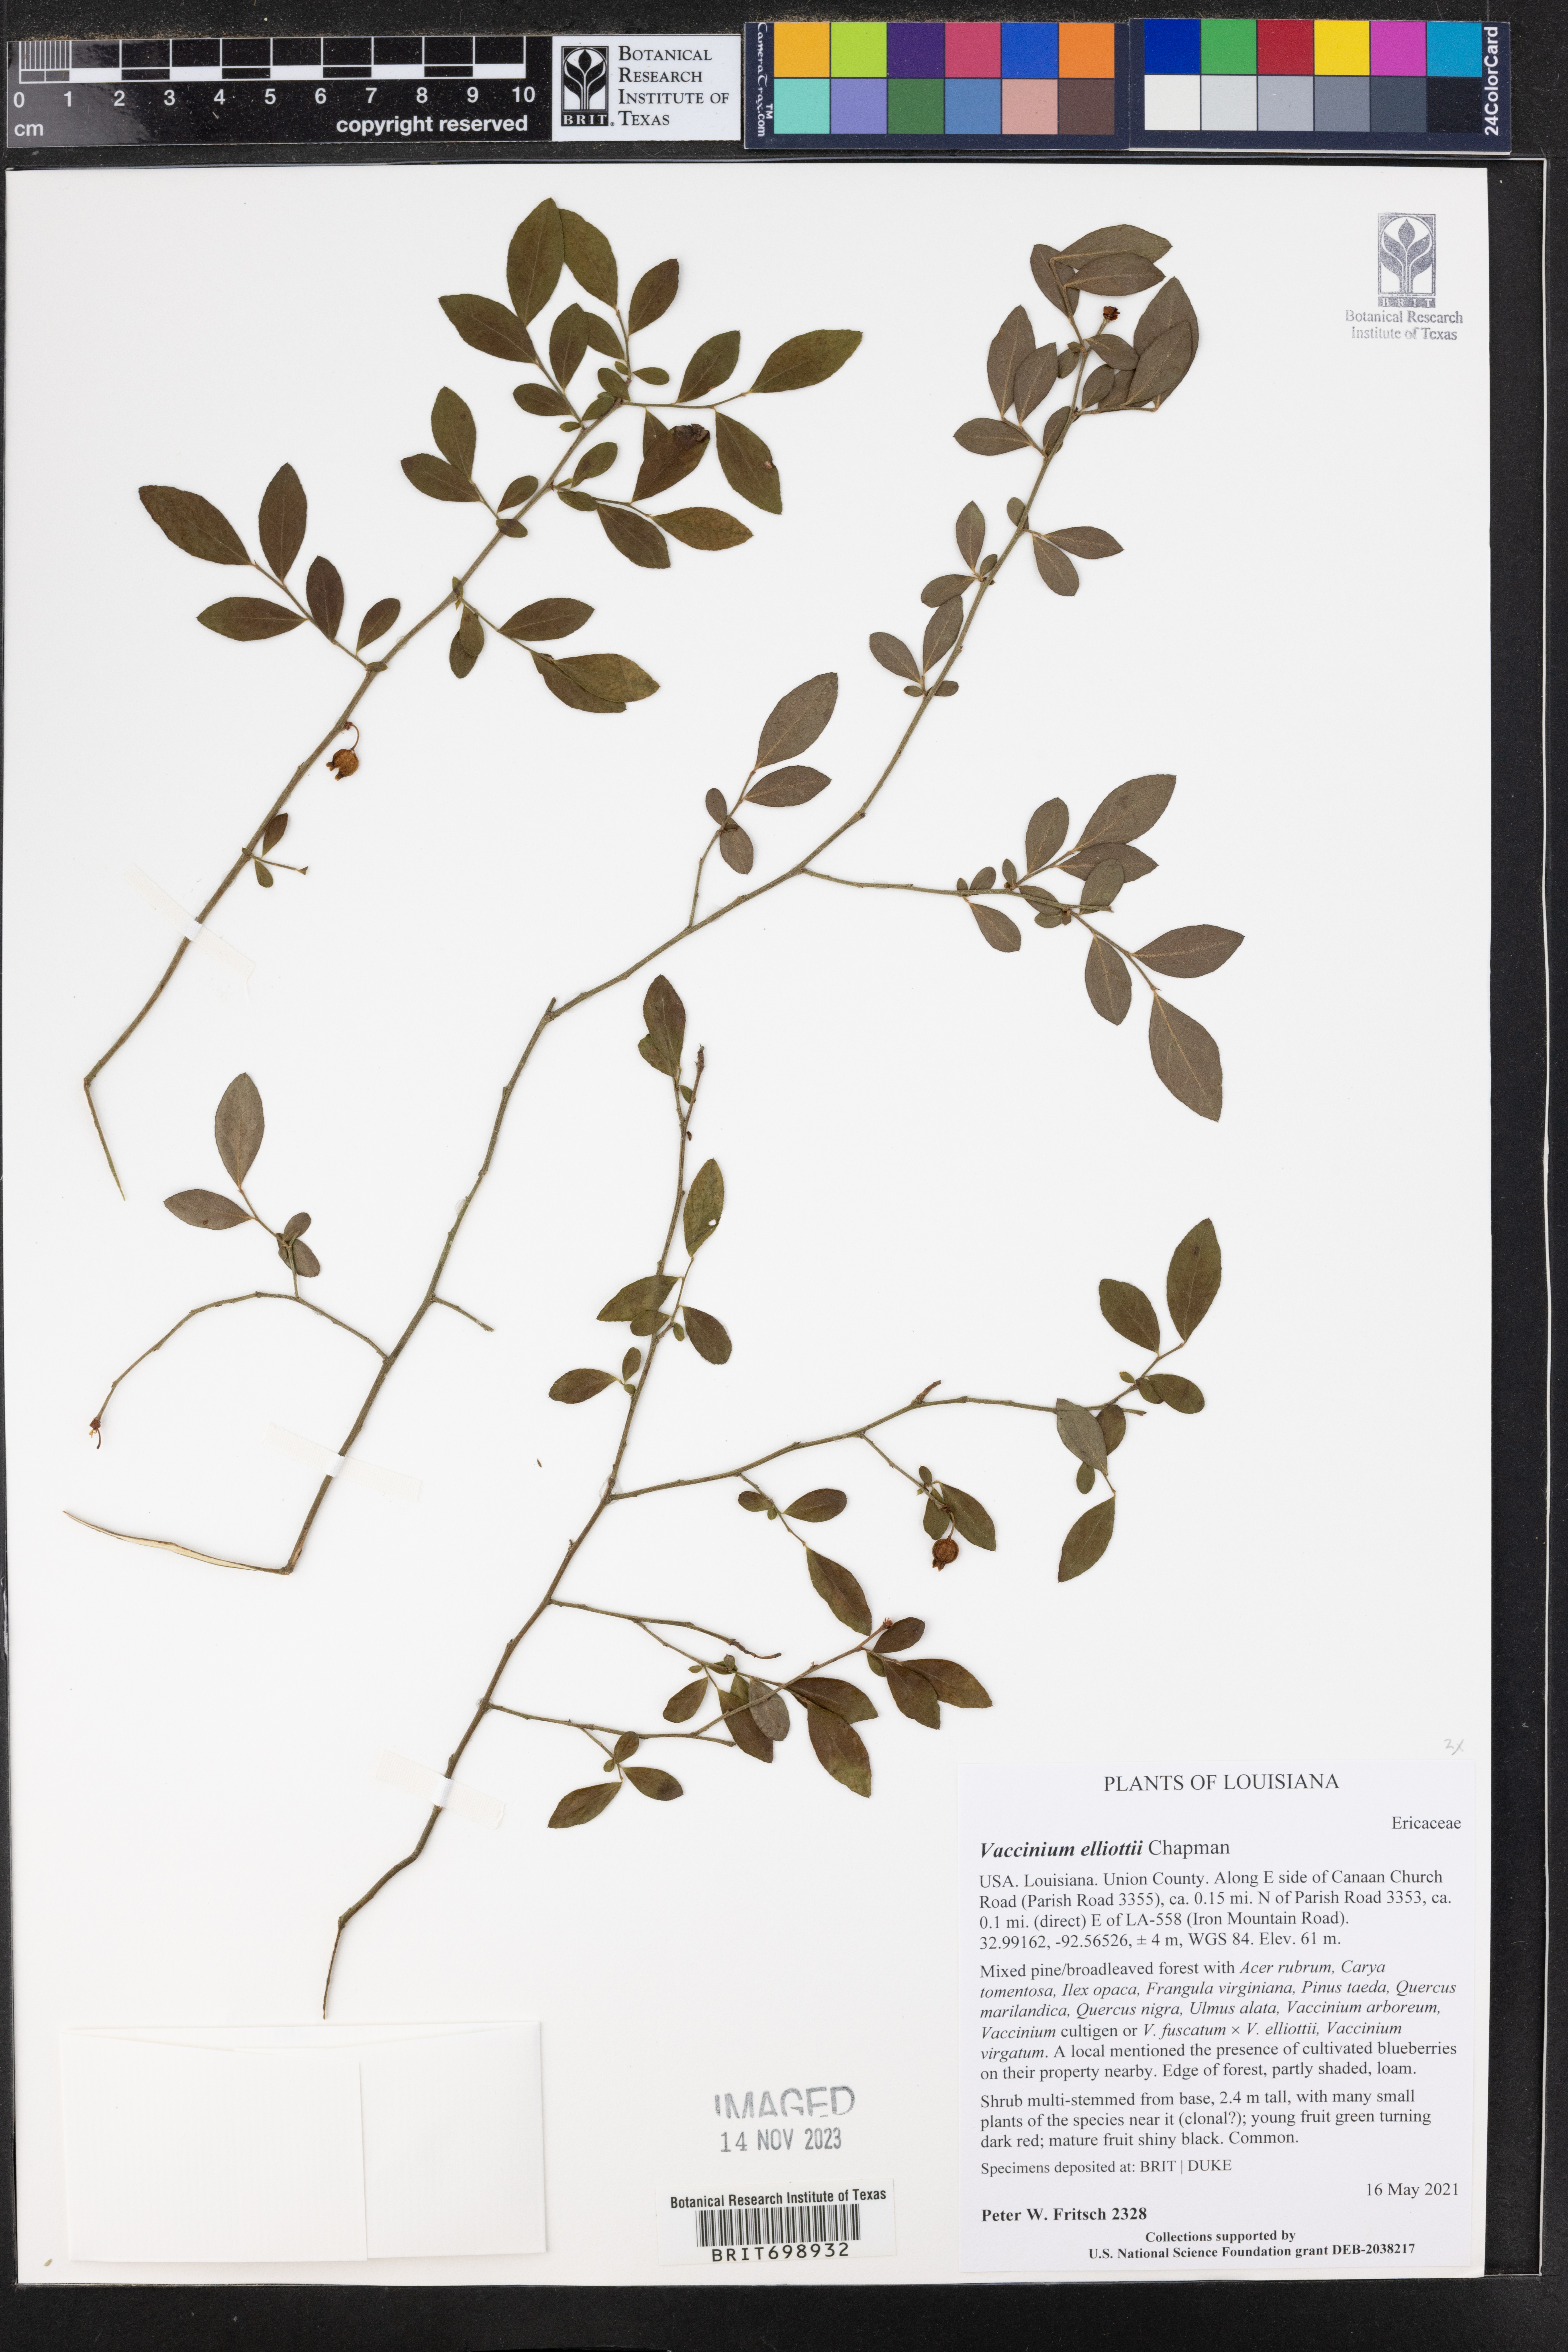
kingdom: Plantae
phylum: Tracheophyta
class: Magnoliopsida
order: Ericales
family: Ericaceae
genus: Vaccinium
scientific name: Vaccinium corymbosum
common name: Blueberry
